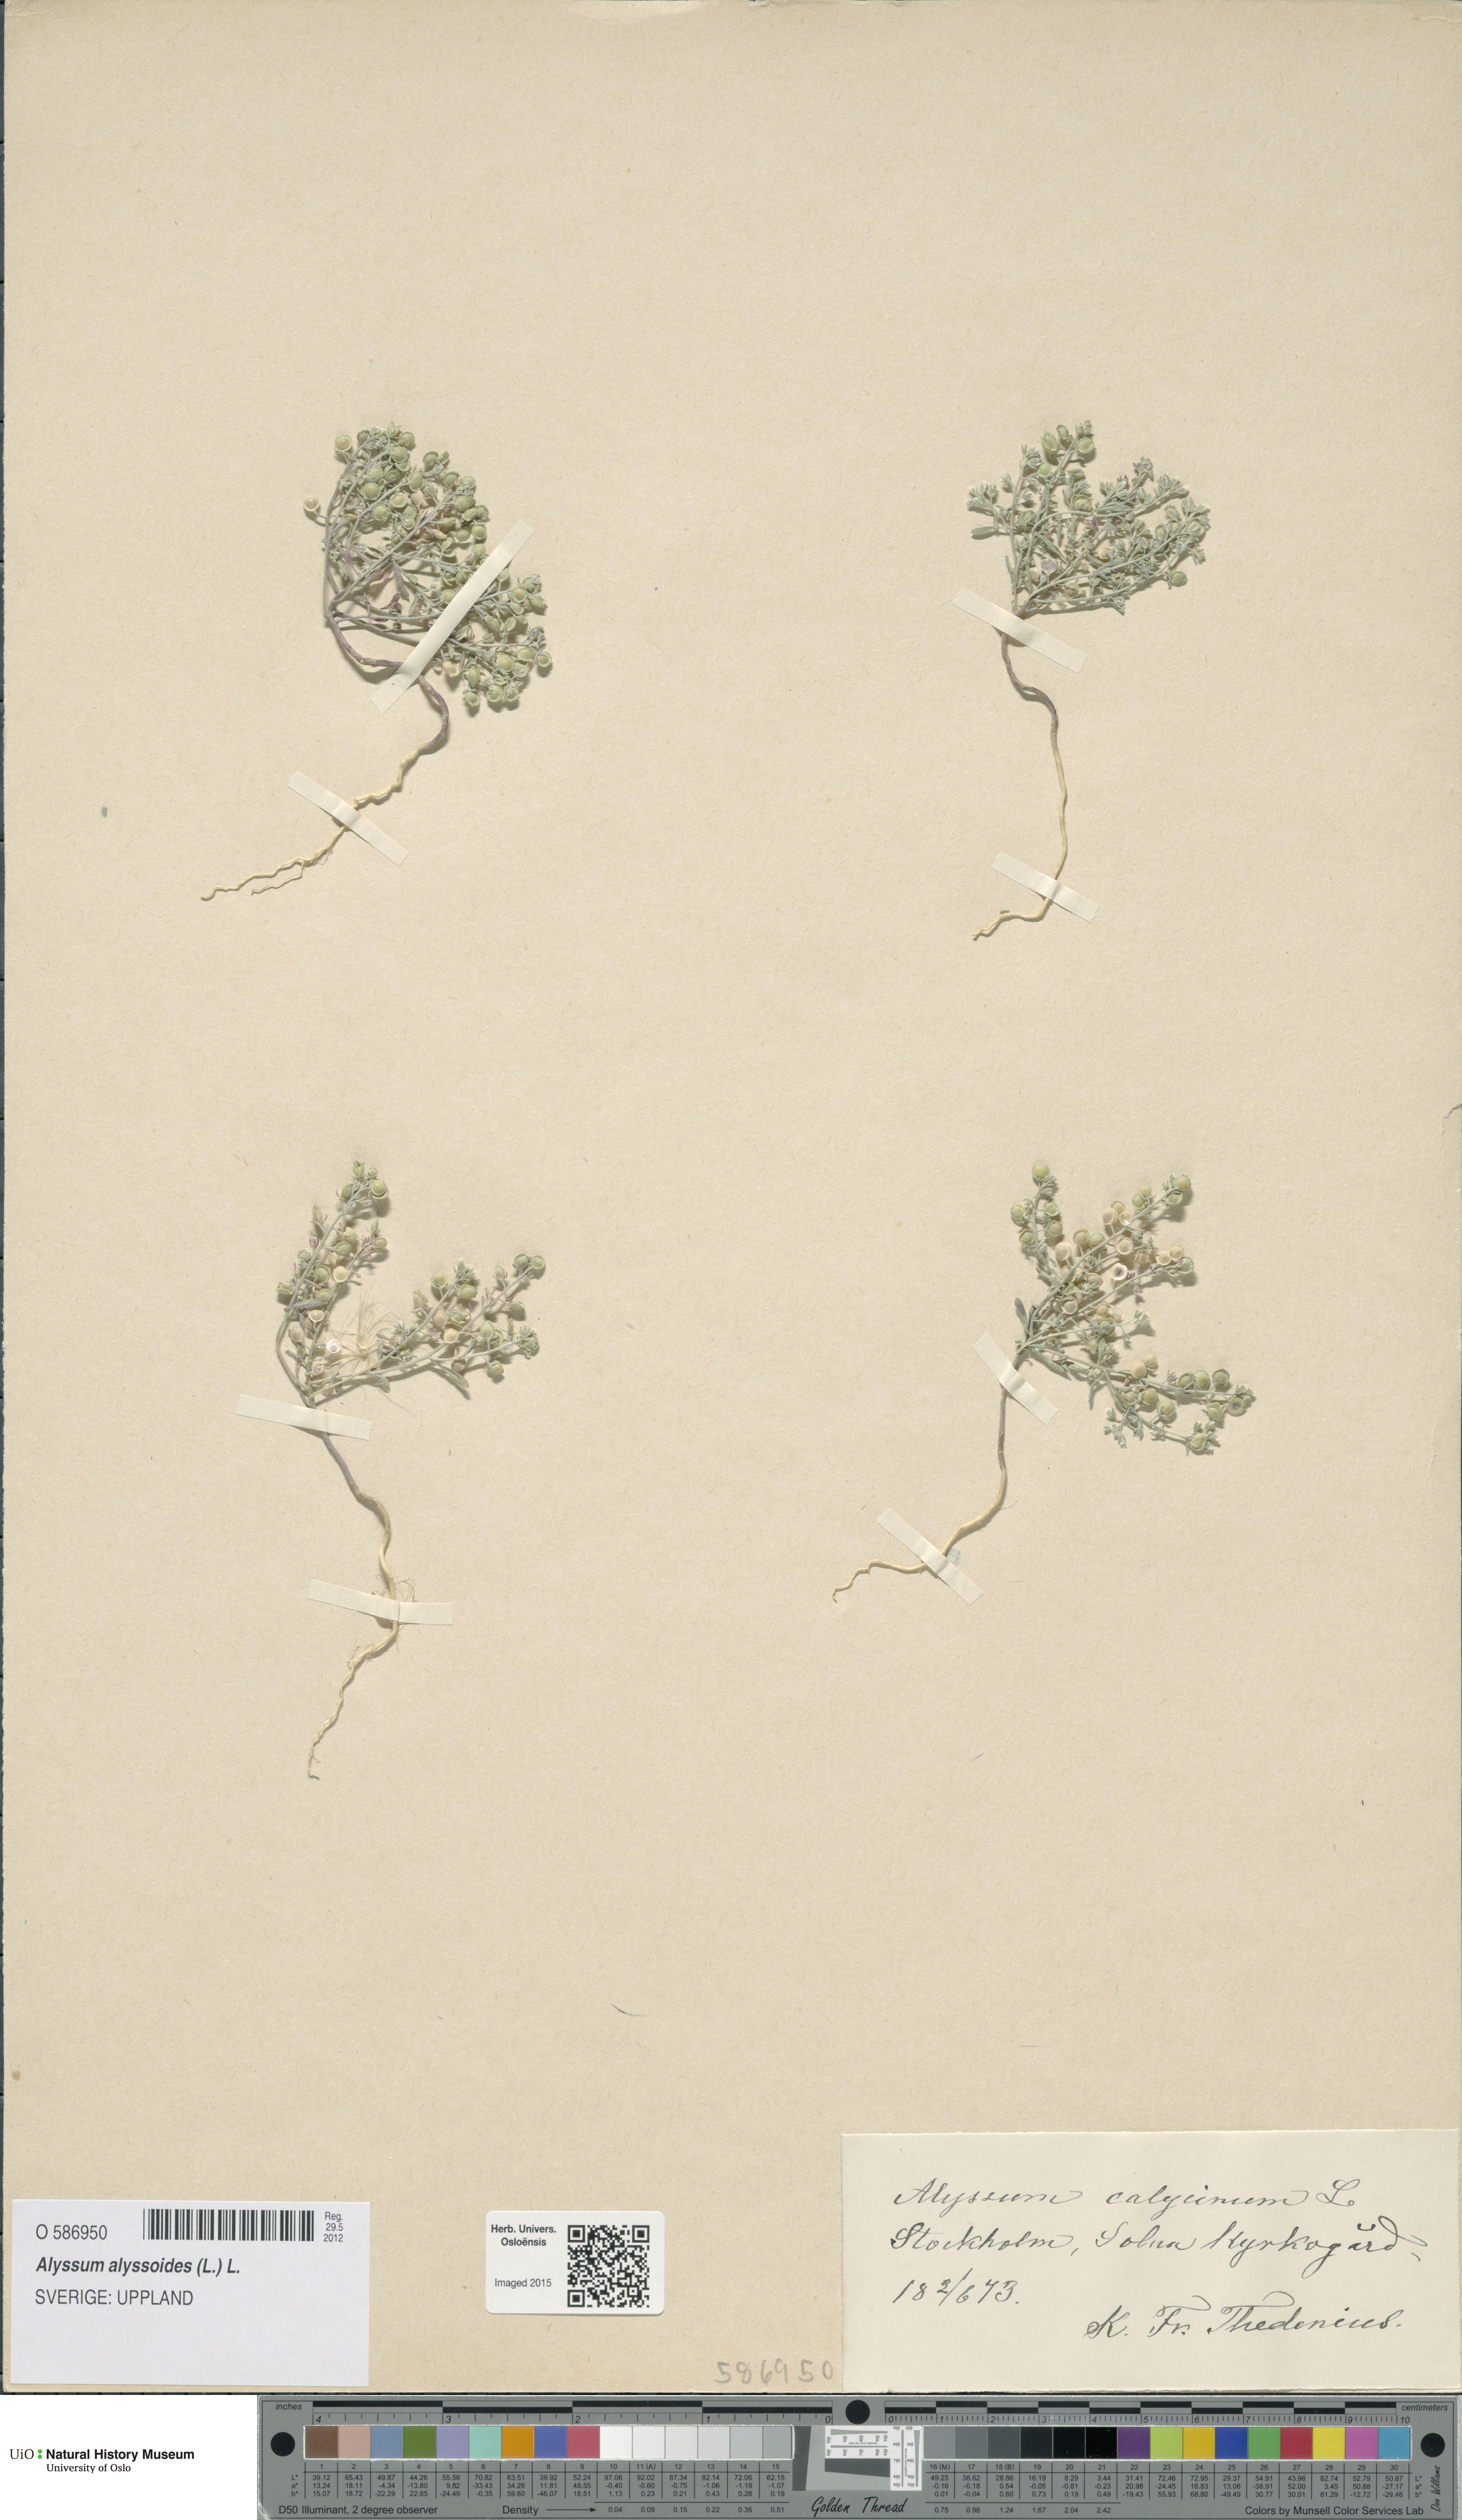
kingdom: Plantae
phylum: Tracheophyta
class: Magnoliopsida
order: Brassicales
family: Brassicaceae
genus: Alyssum
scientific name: Alyssum alyssoides
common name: Small alison
